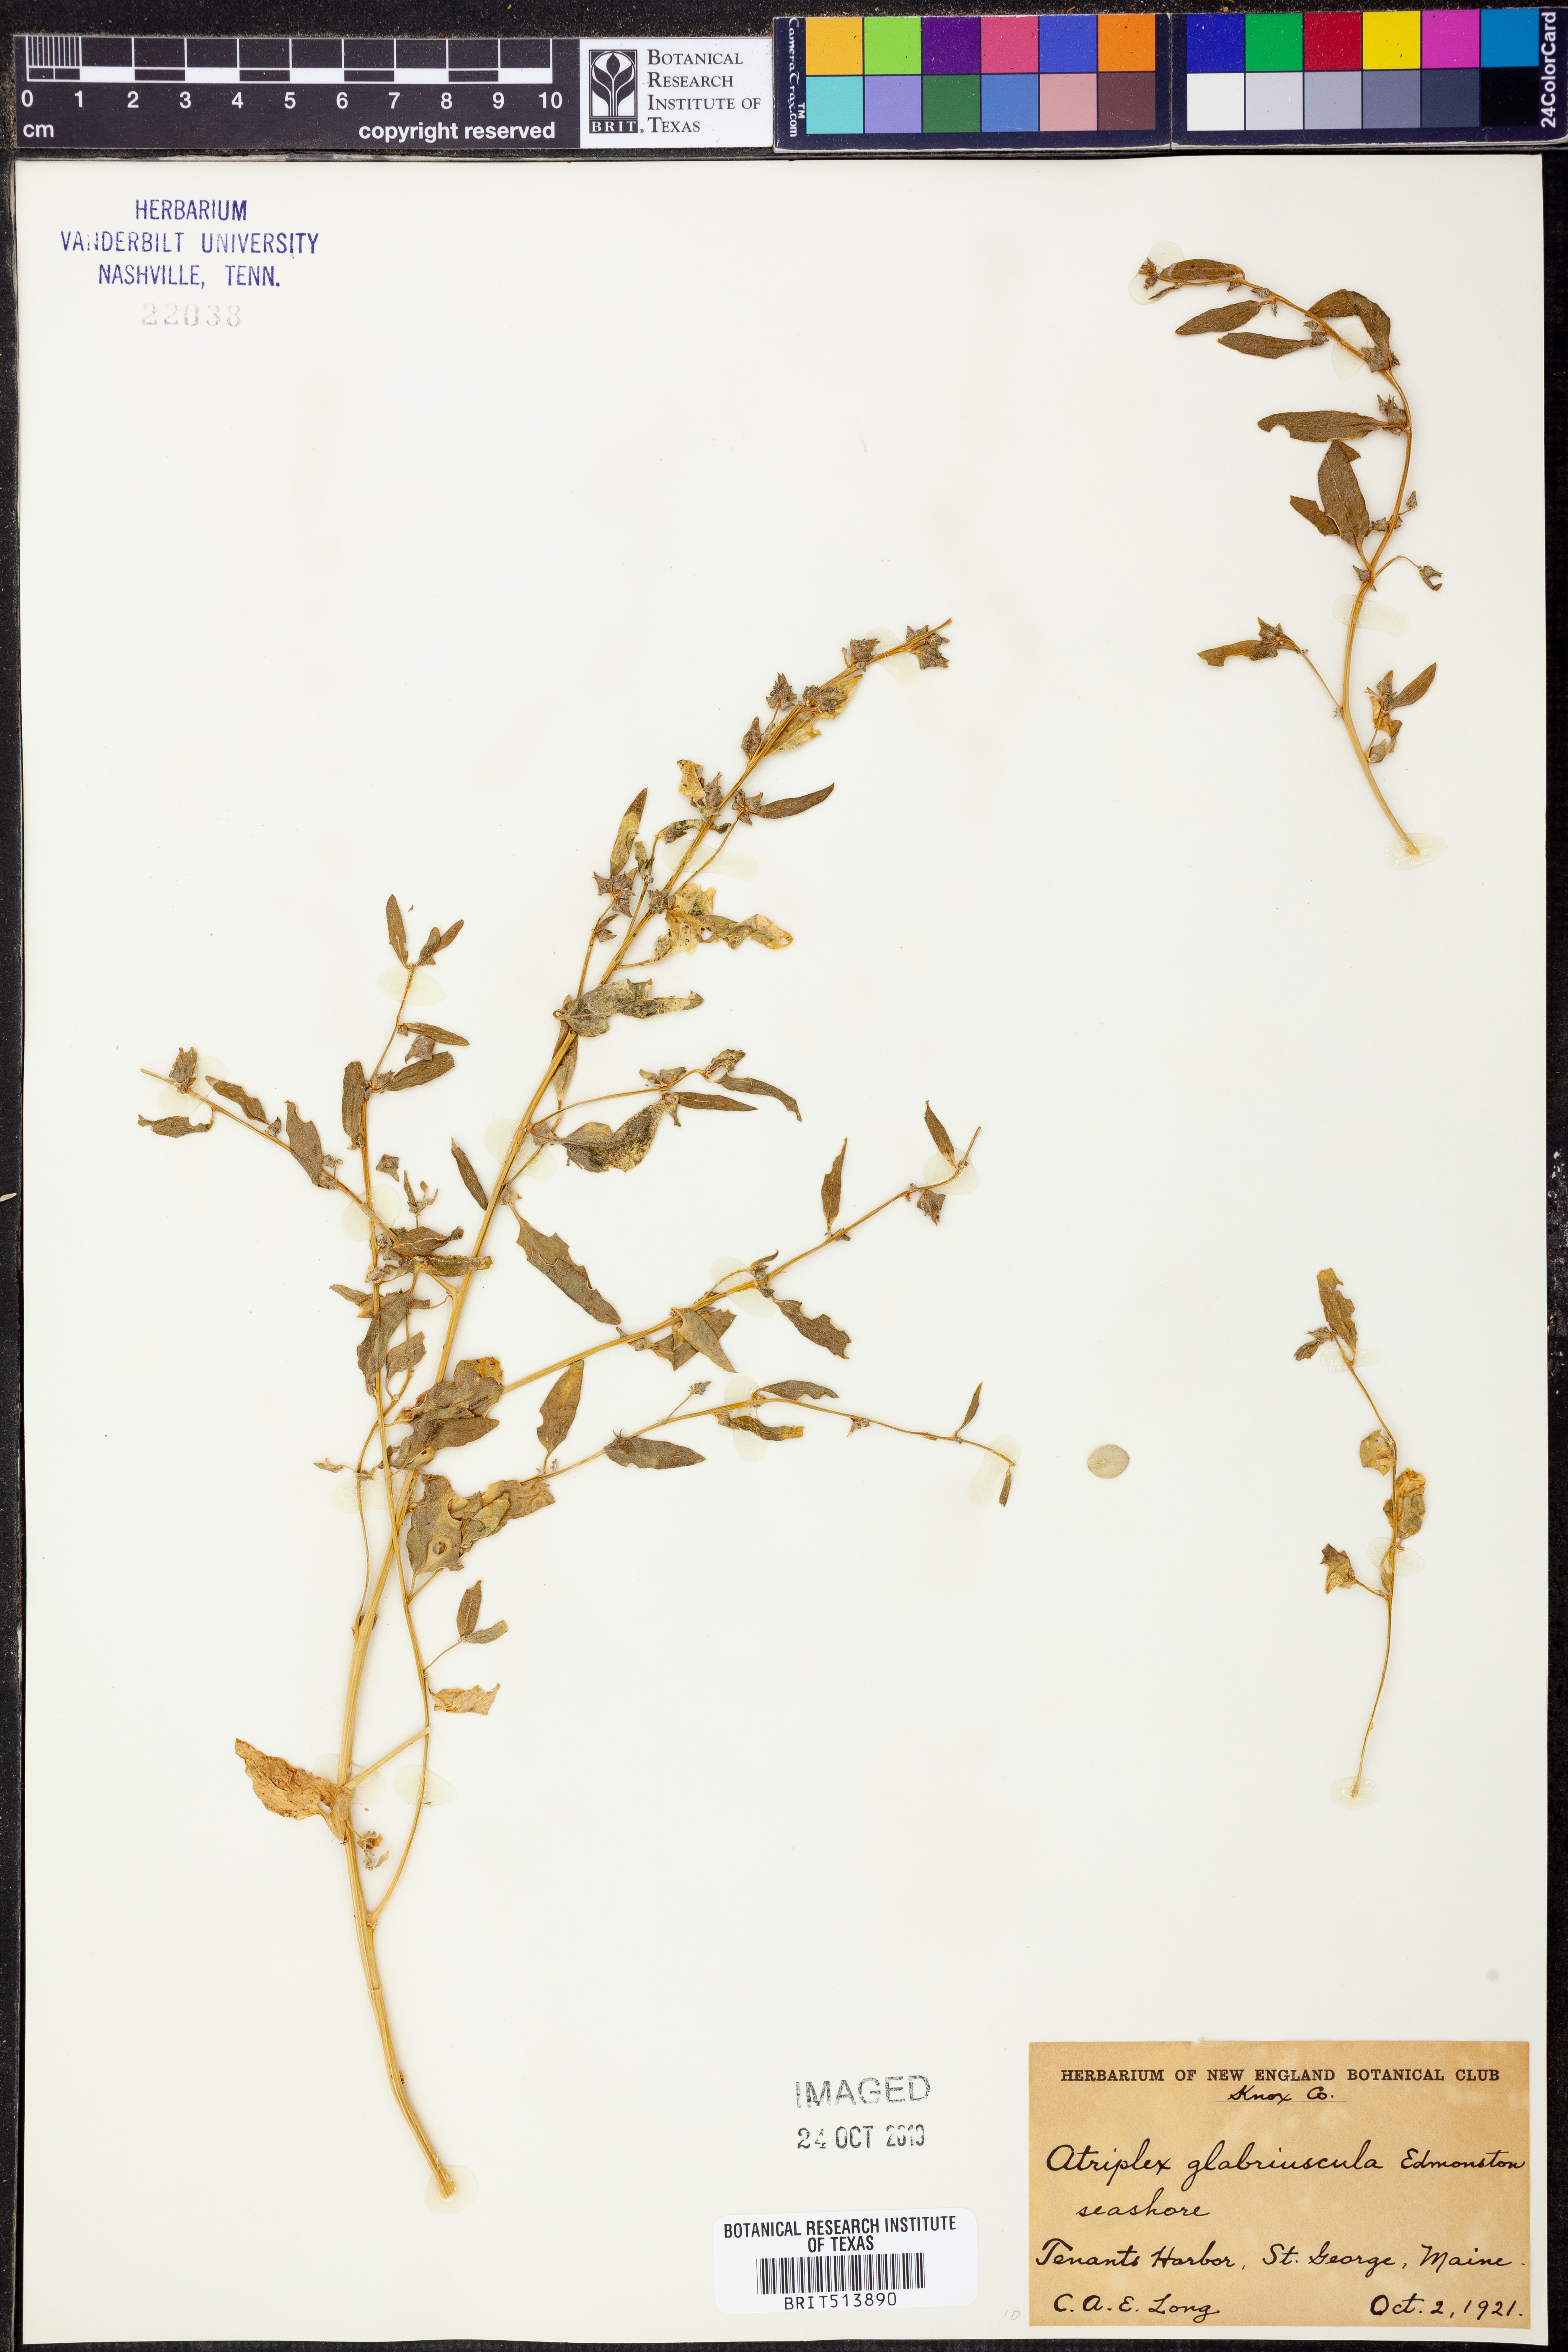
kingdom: Plantae
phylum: Tracheophyta
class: Magnoliopsida
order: Caryophyllales
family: Amaranthaceae
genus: Atriplex
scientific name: Atriplex glabriuscula
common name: Babington's orache
